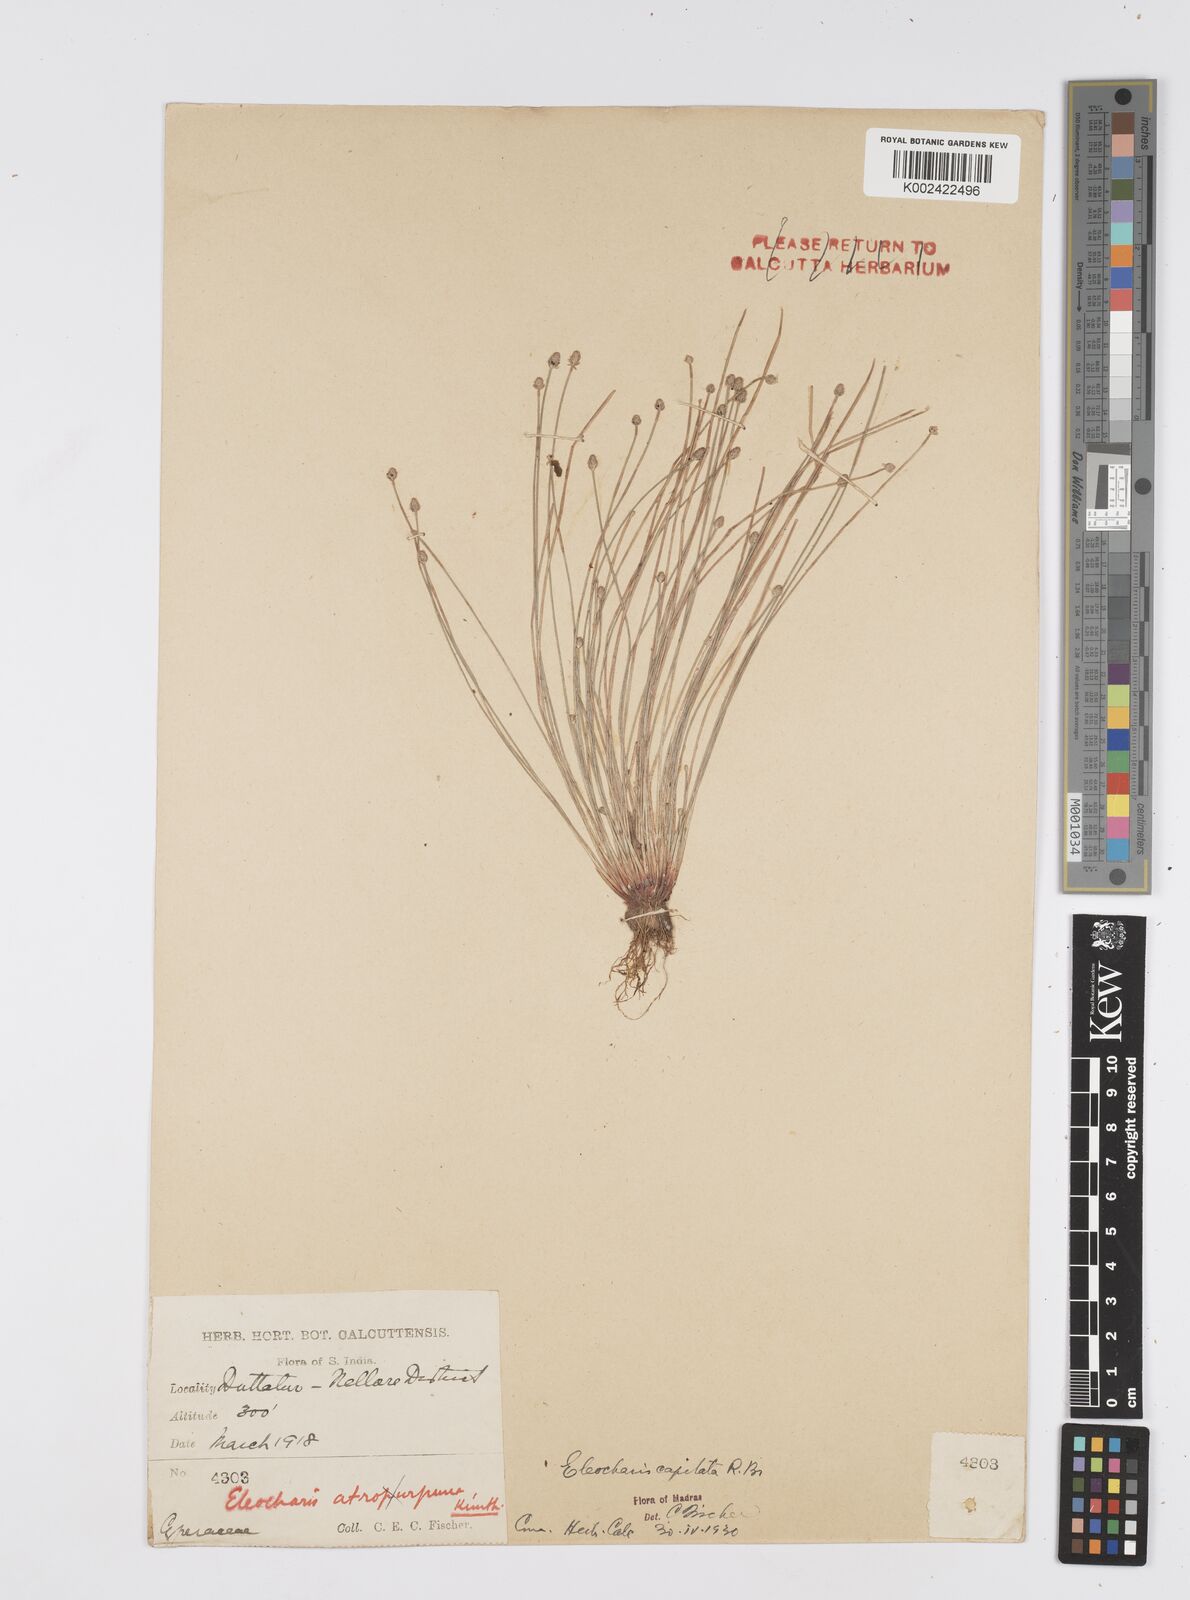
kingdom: Plantae
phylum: Tracheophyta
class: Liliopsida
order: Poales
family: Cyperaceae
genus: Eleocharis
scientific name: Eleocharis geniculata
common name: Canada spikesedge
